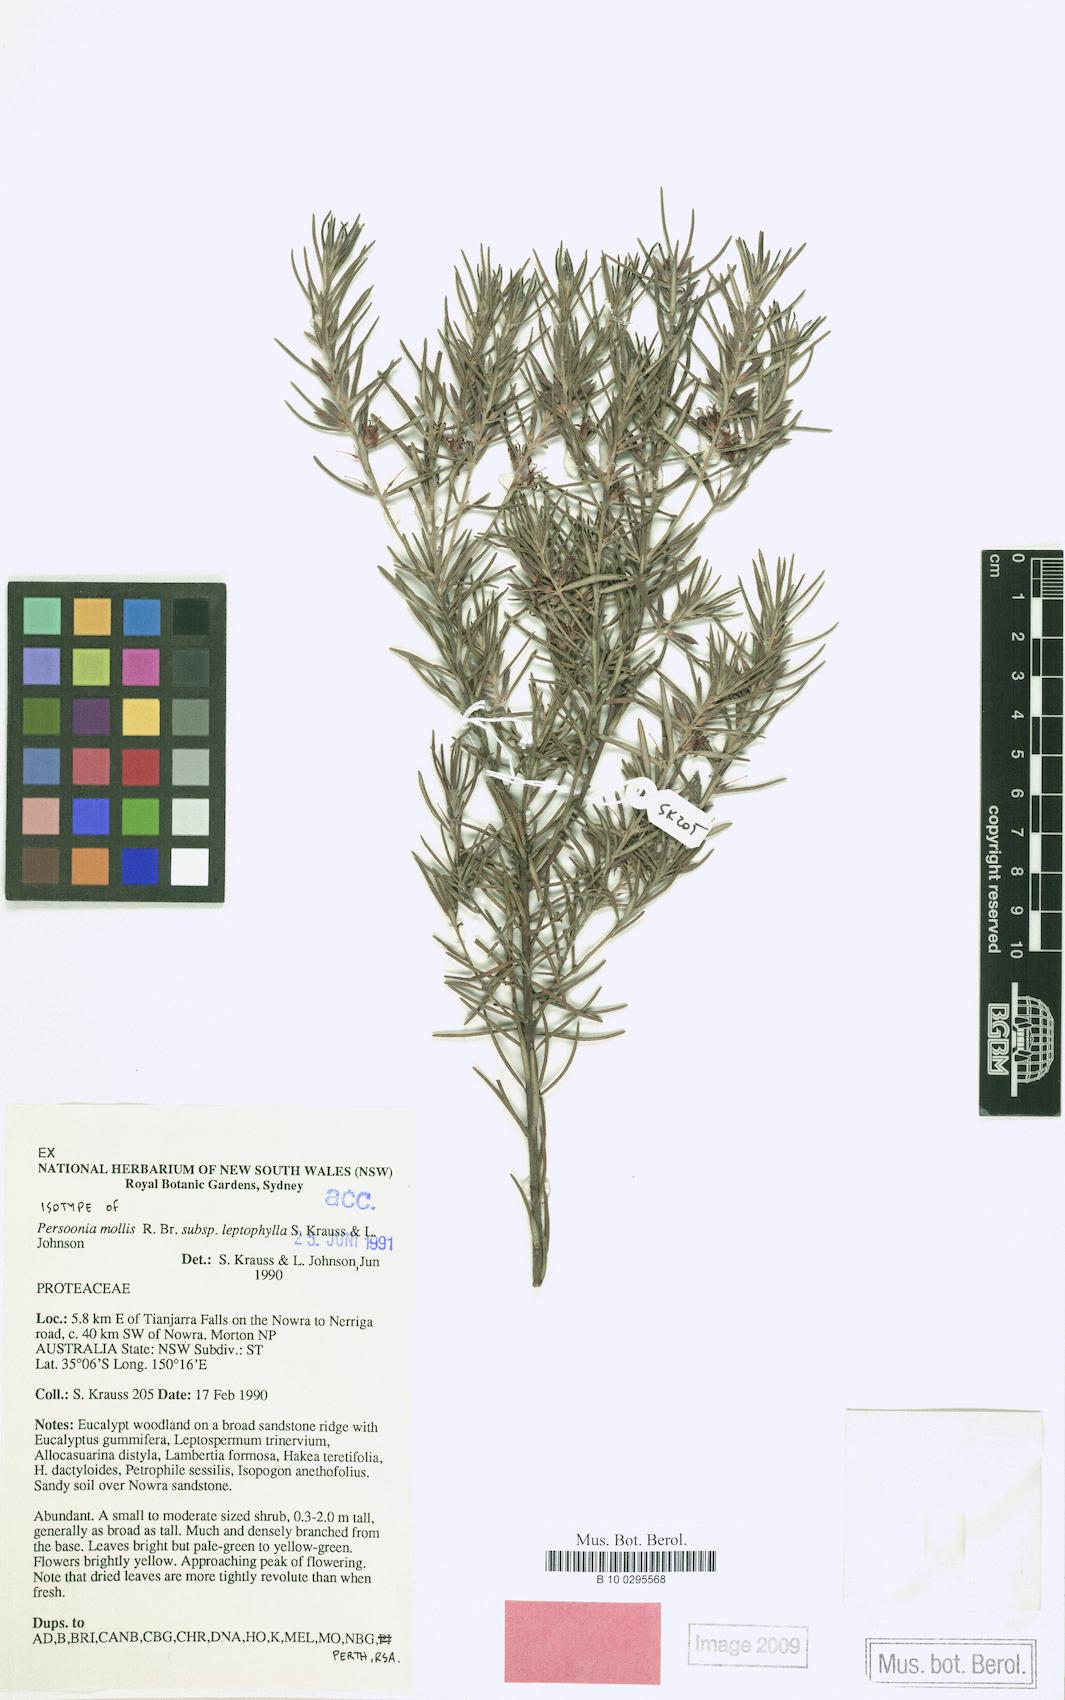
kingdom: Plantae
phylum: Tracheophyta
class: Magnoliopsida
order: Proteales
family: Proteaceae
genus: Persoonia
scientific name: Persoonia mollis
